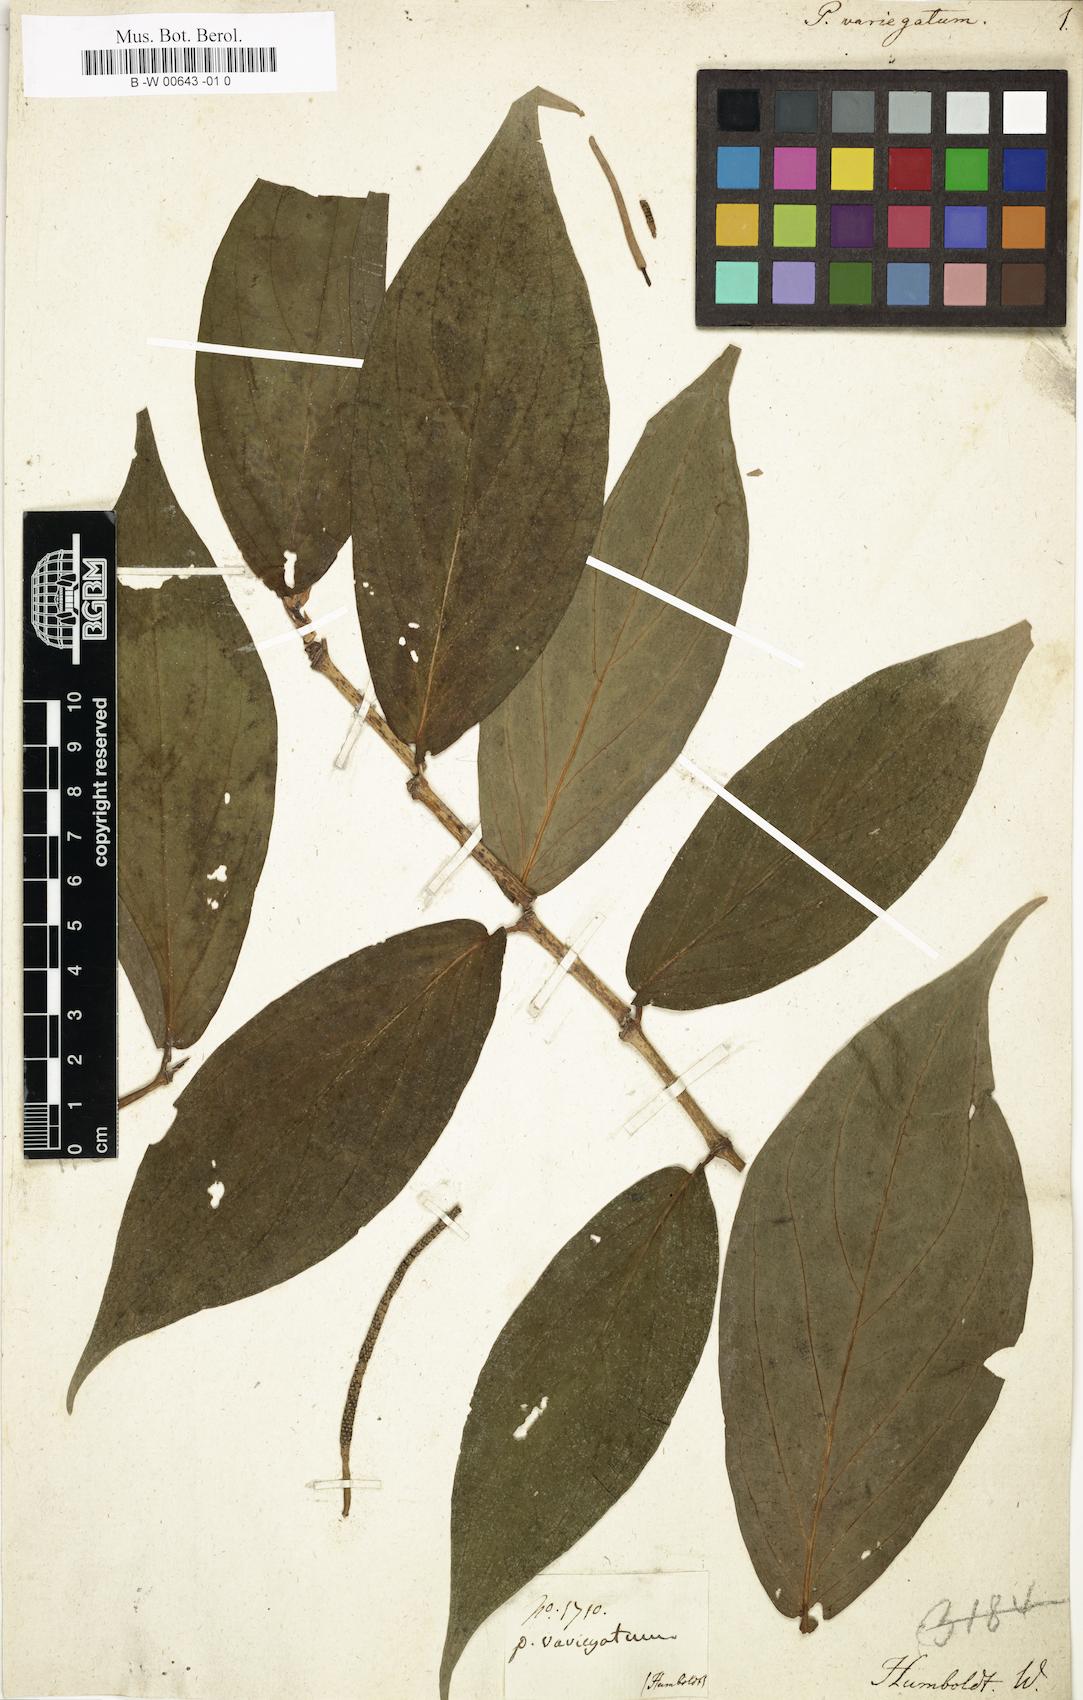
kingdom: Plantae
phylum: Tracheophyta
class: Magnoliopsida
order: Piperales
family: Piperaceae
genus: Piper
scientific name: Piper variegatum
